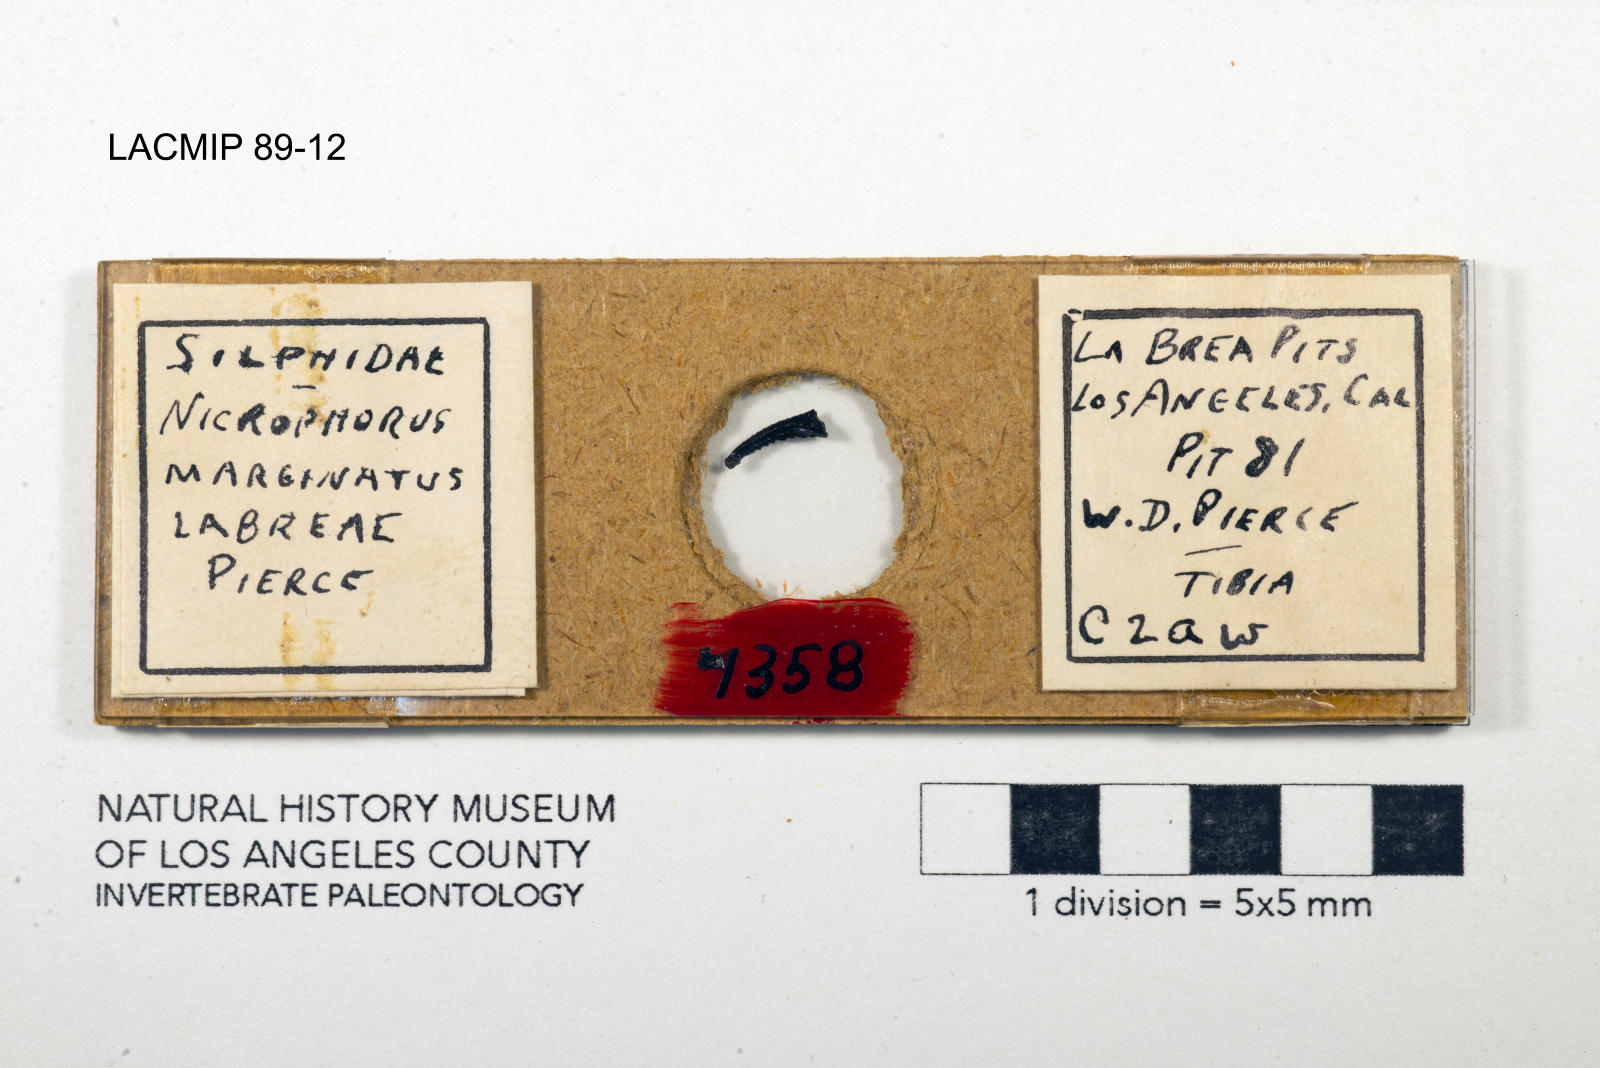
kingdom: Animalia
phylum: Arthropoda
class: Insecta
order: Coleoptera
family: Staphylinidae
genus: Nicrophorus
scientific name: Nicrophorus marginatus
